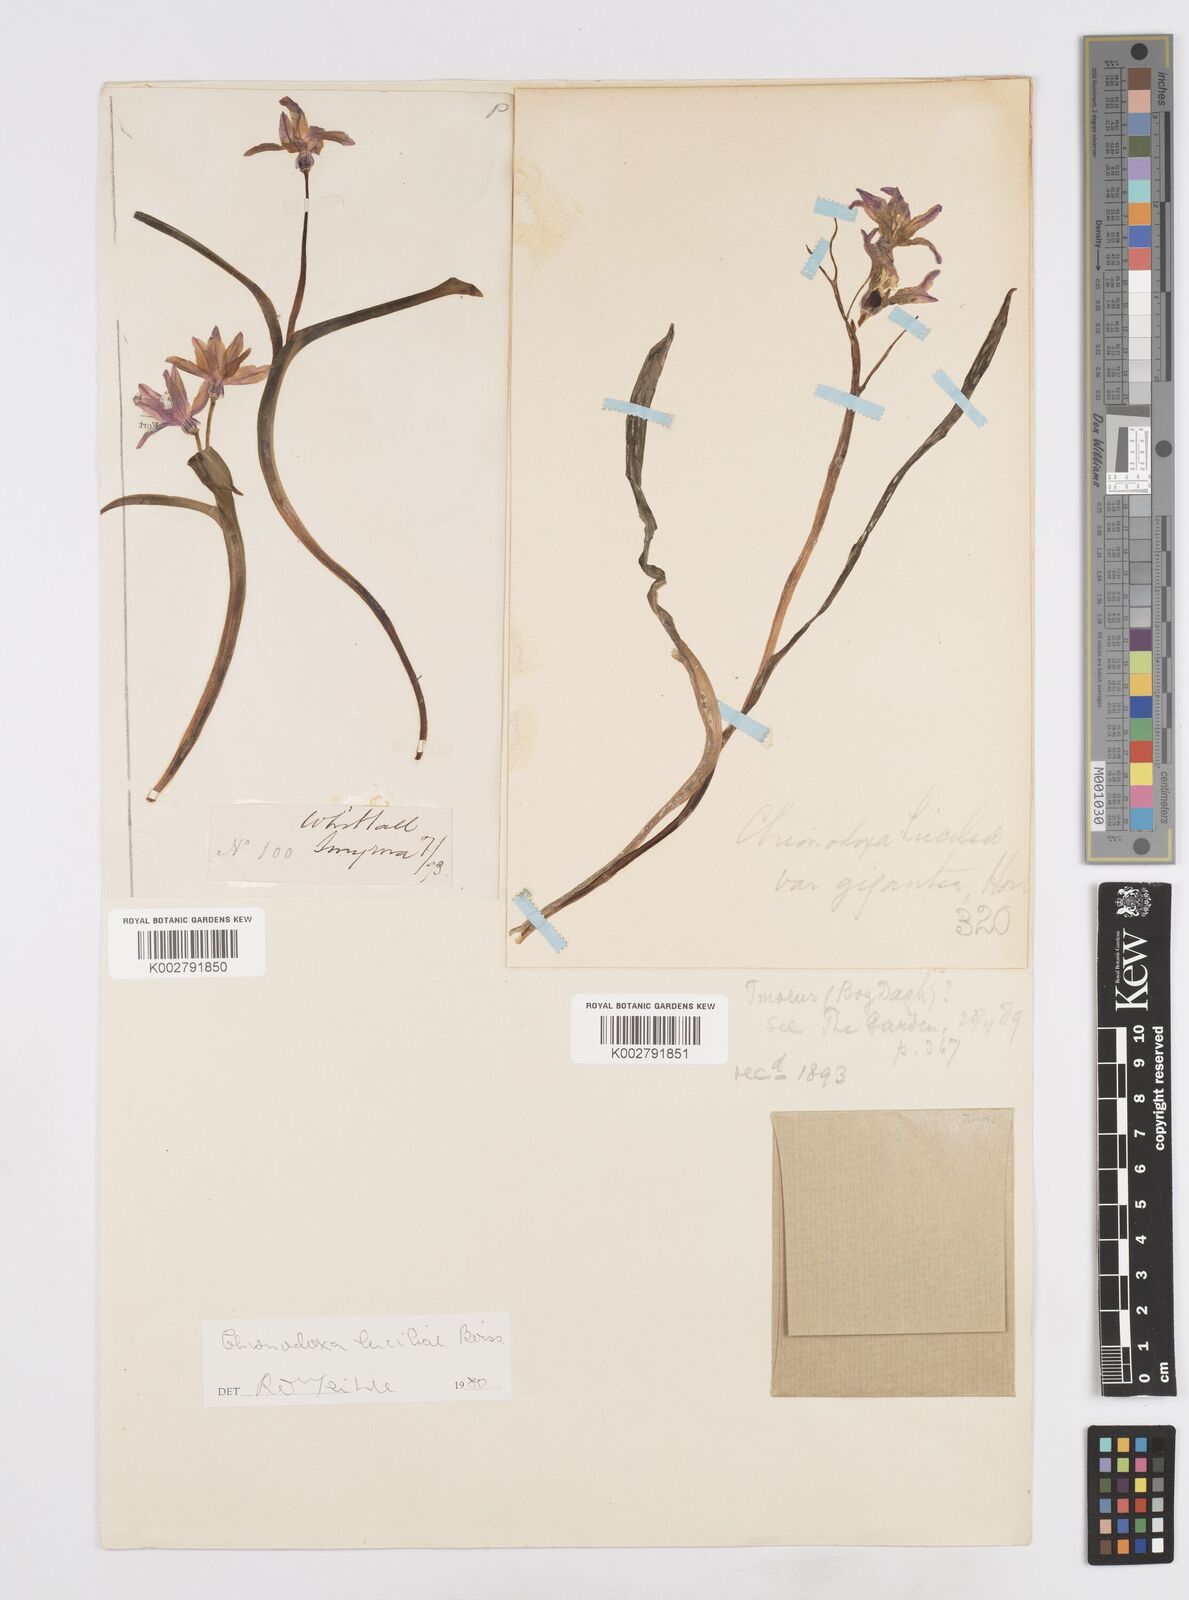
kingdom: Plantae
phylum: Tracheophyta
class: Liliopsida
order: Asparagales
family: Asparagaceae
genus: Scilla
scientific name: Scilla luciliae
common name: Boissier's glory-of-the-snow
